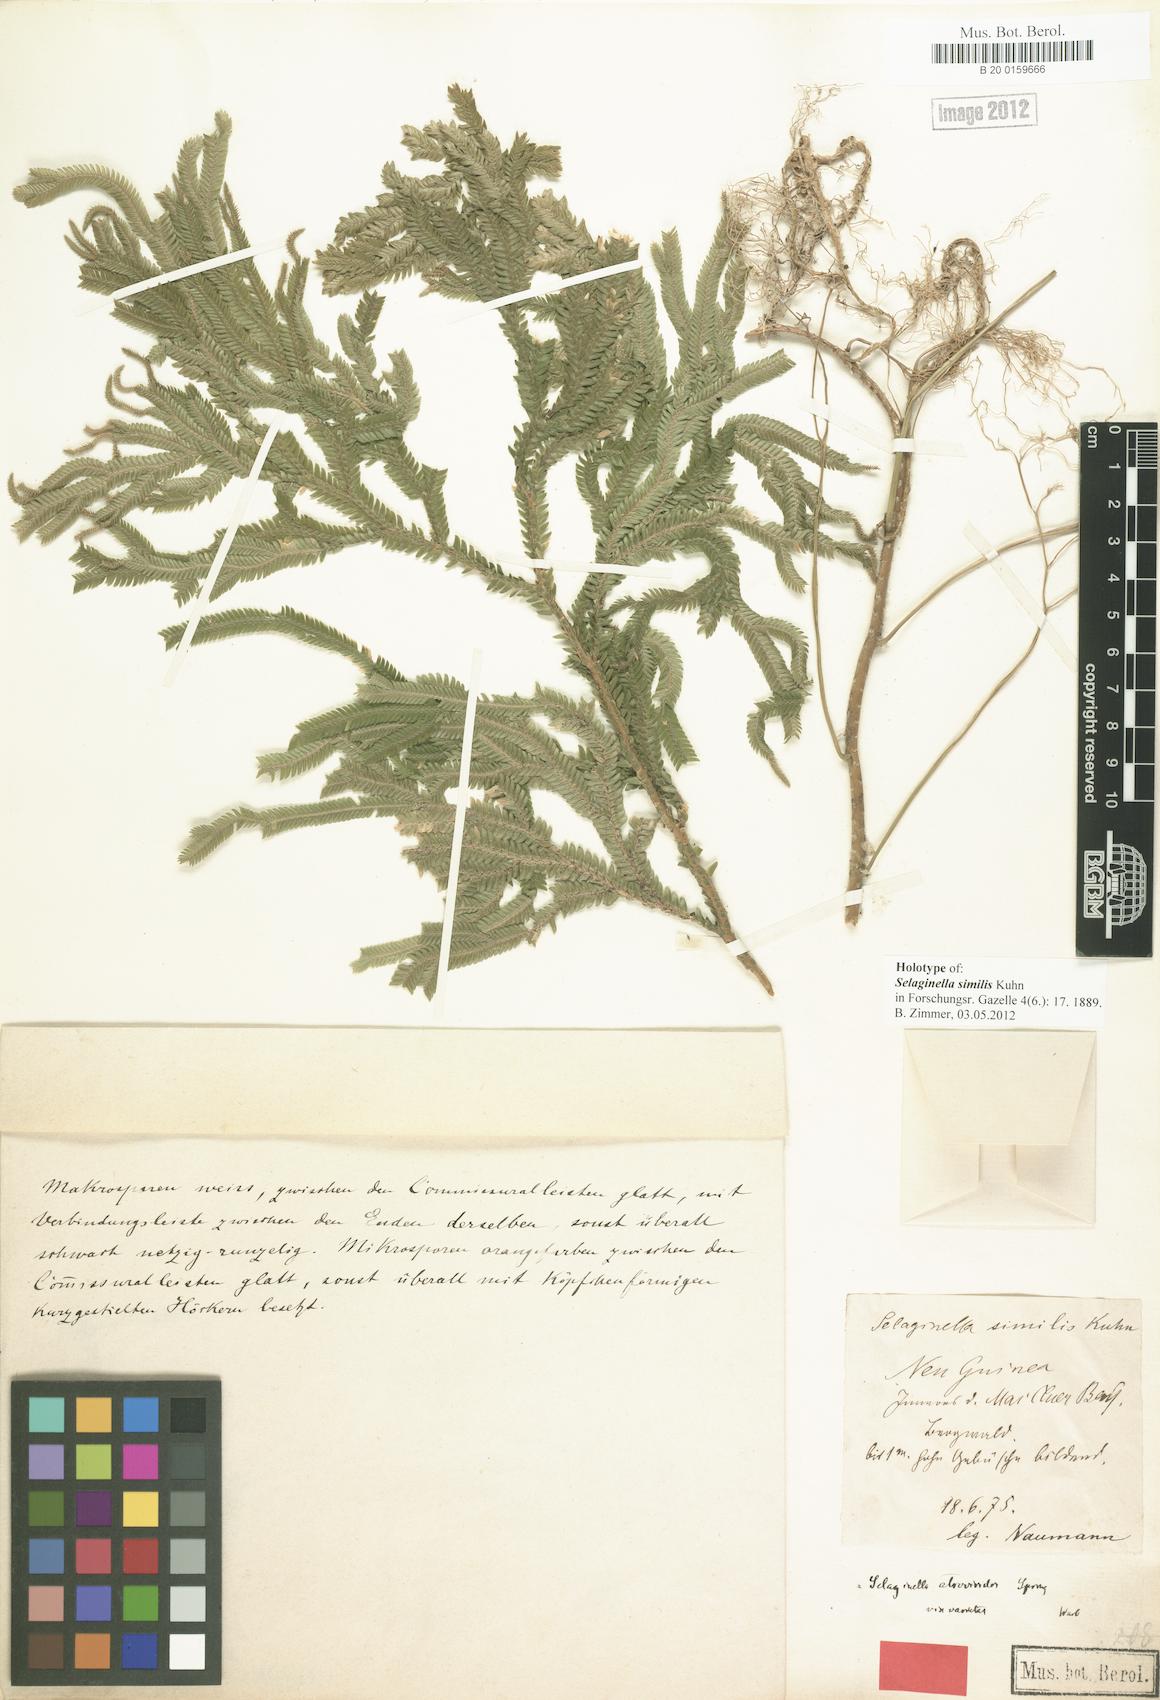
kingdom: Plantae
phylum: Tracheophyta
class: Lycopodiopsida
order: Selaginellales
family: Selaginellaceae
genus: Selaginella
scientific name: Selaginella intermedia
